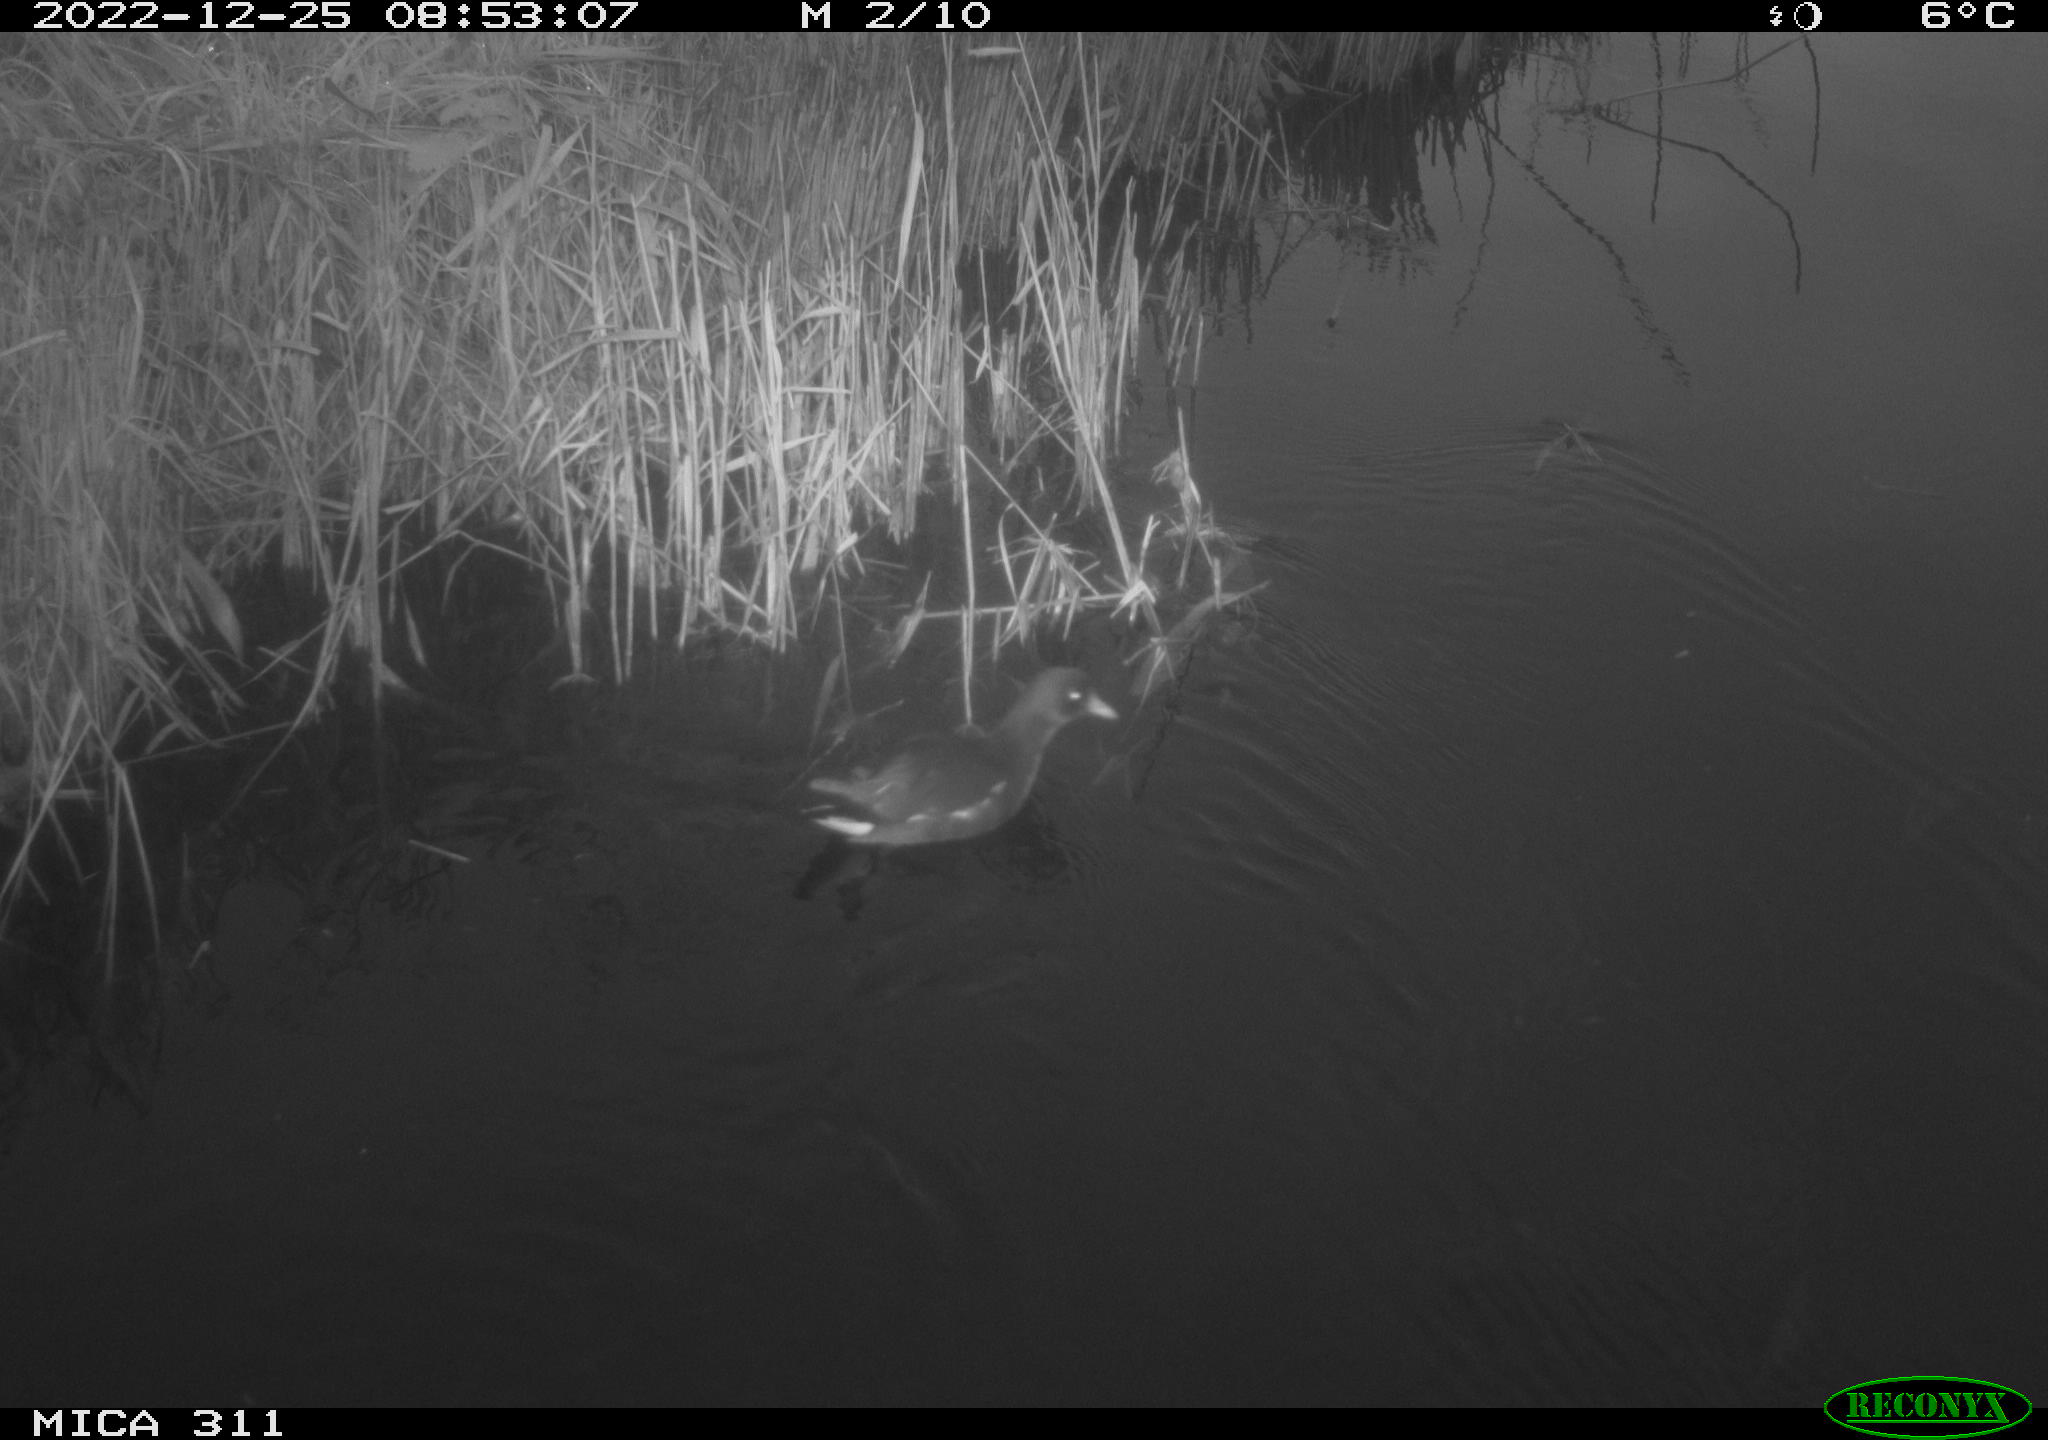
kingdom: Animalia
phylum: Chordata
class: Aves
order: Gruiformes
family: Rallidae
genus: Gallinula
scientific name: Gallinula chloropus
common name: Common moorhen
